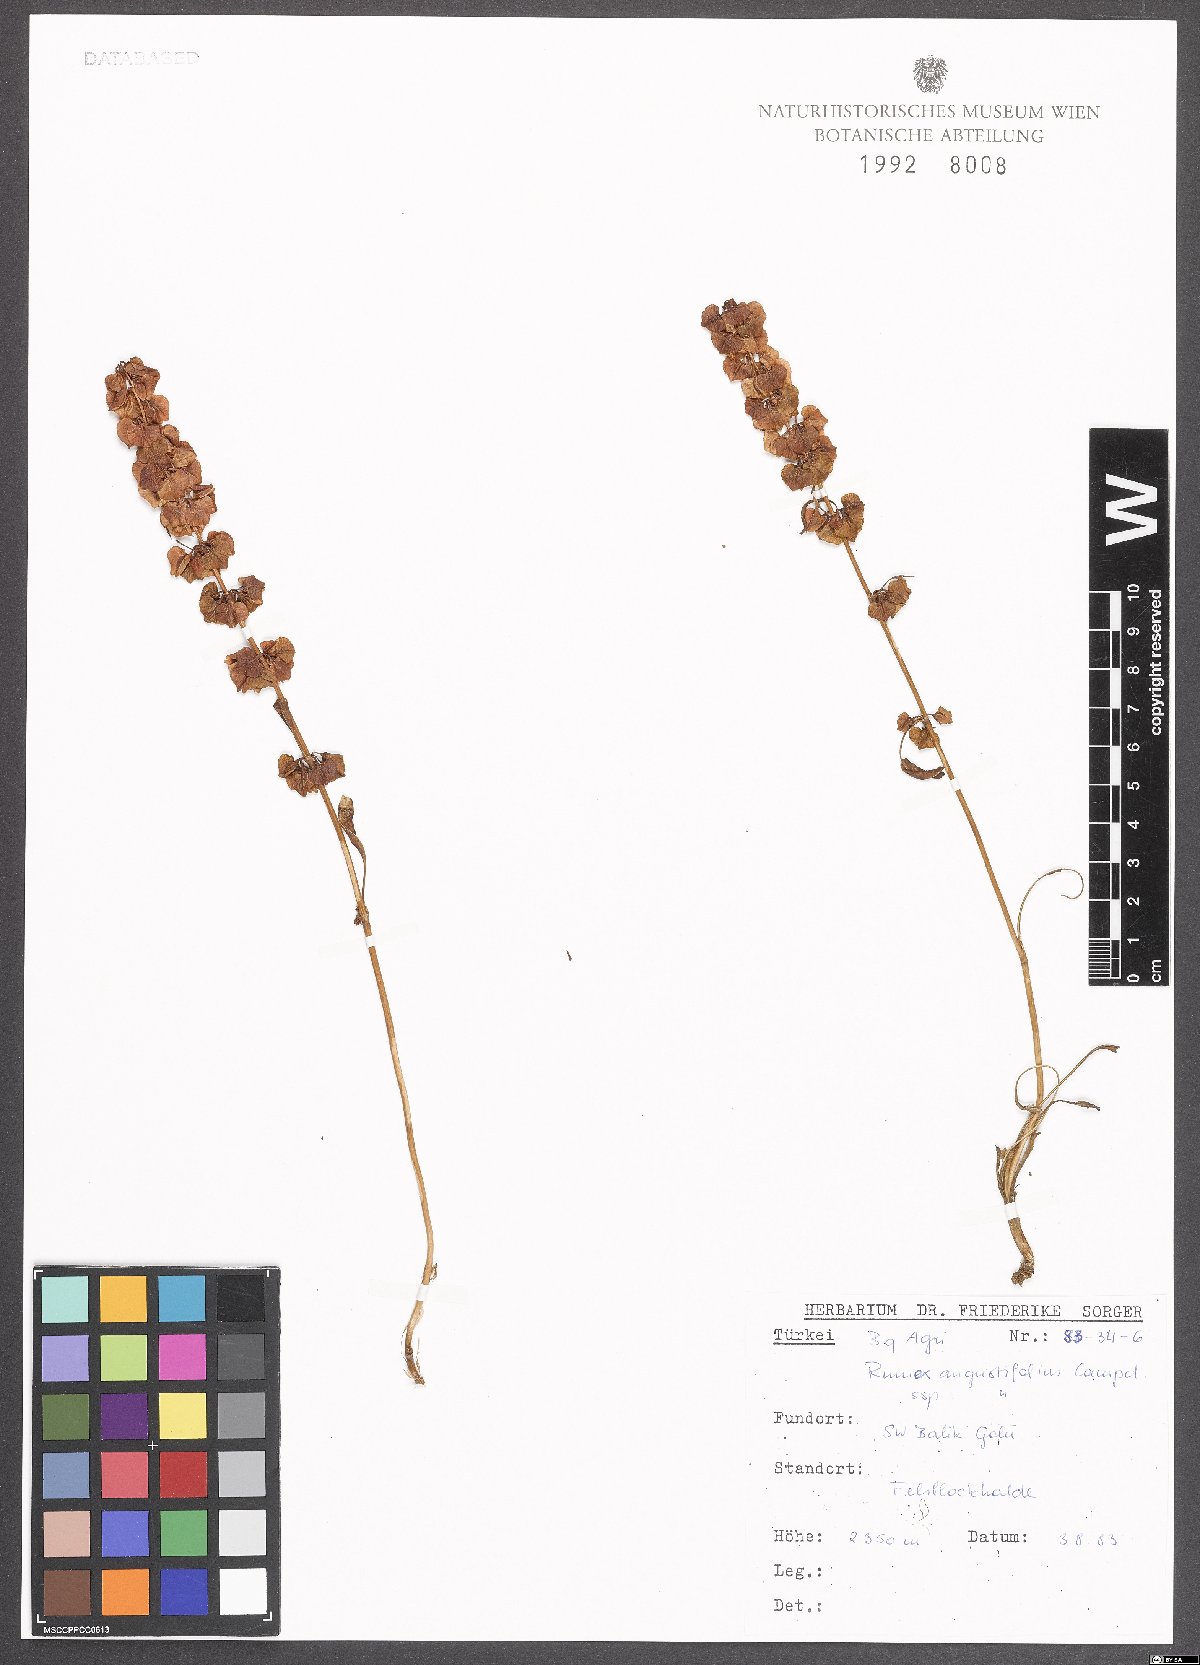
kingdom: Plantae
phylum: Tracheophyta
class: Magnoliopsida
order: Caryophyllales
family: Polygonaceae
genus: Rumex
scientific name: Rumex angustifolius
